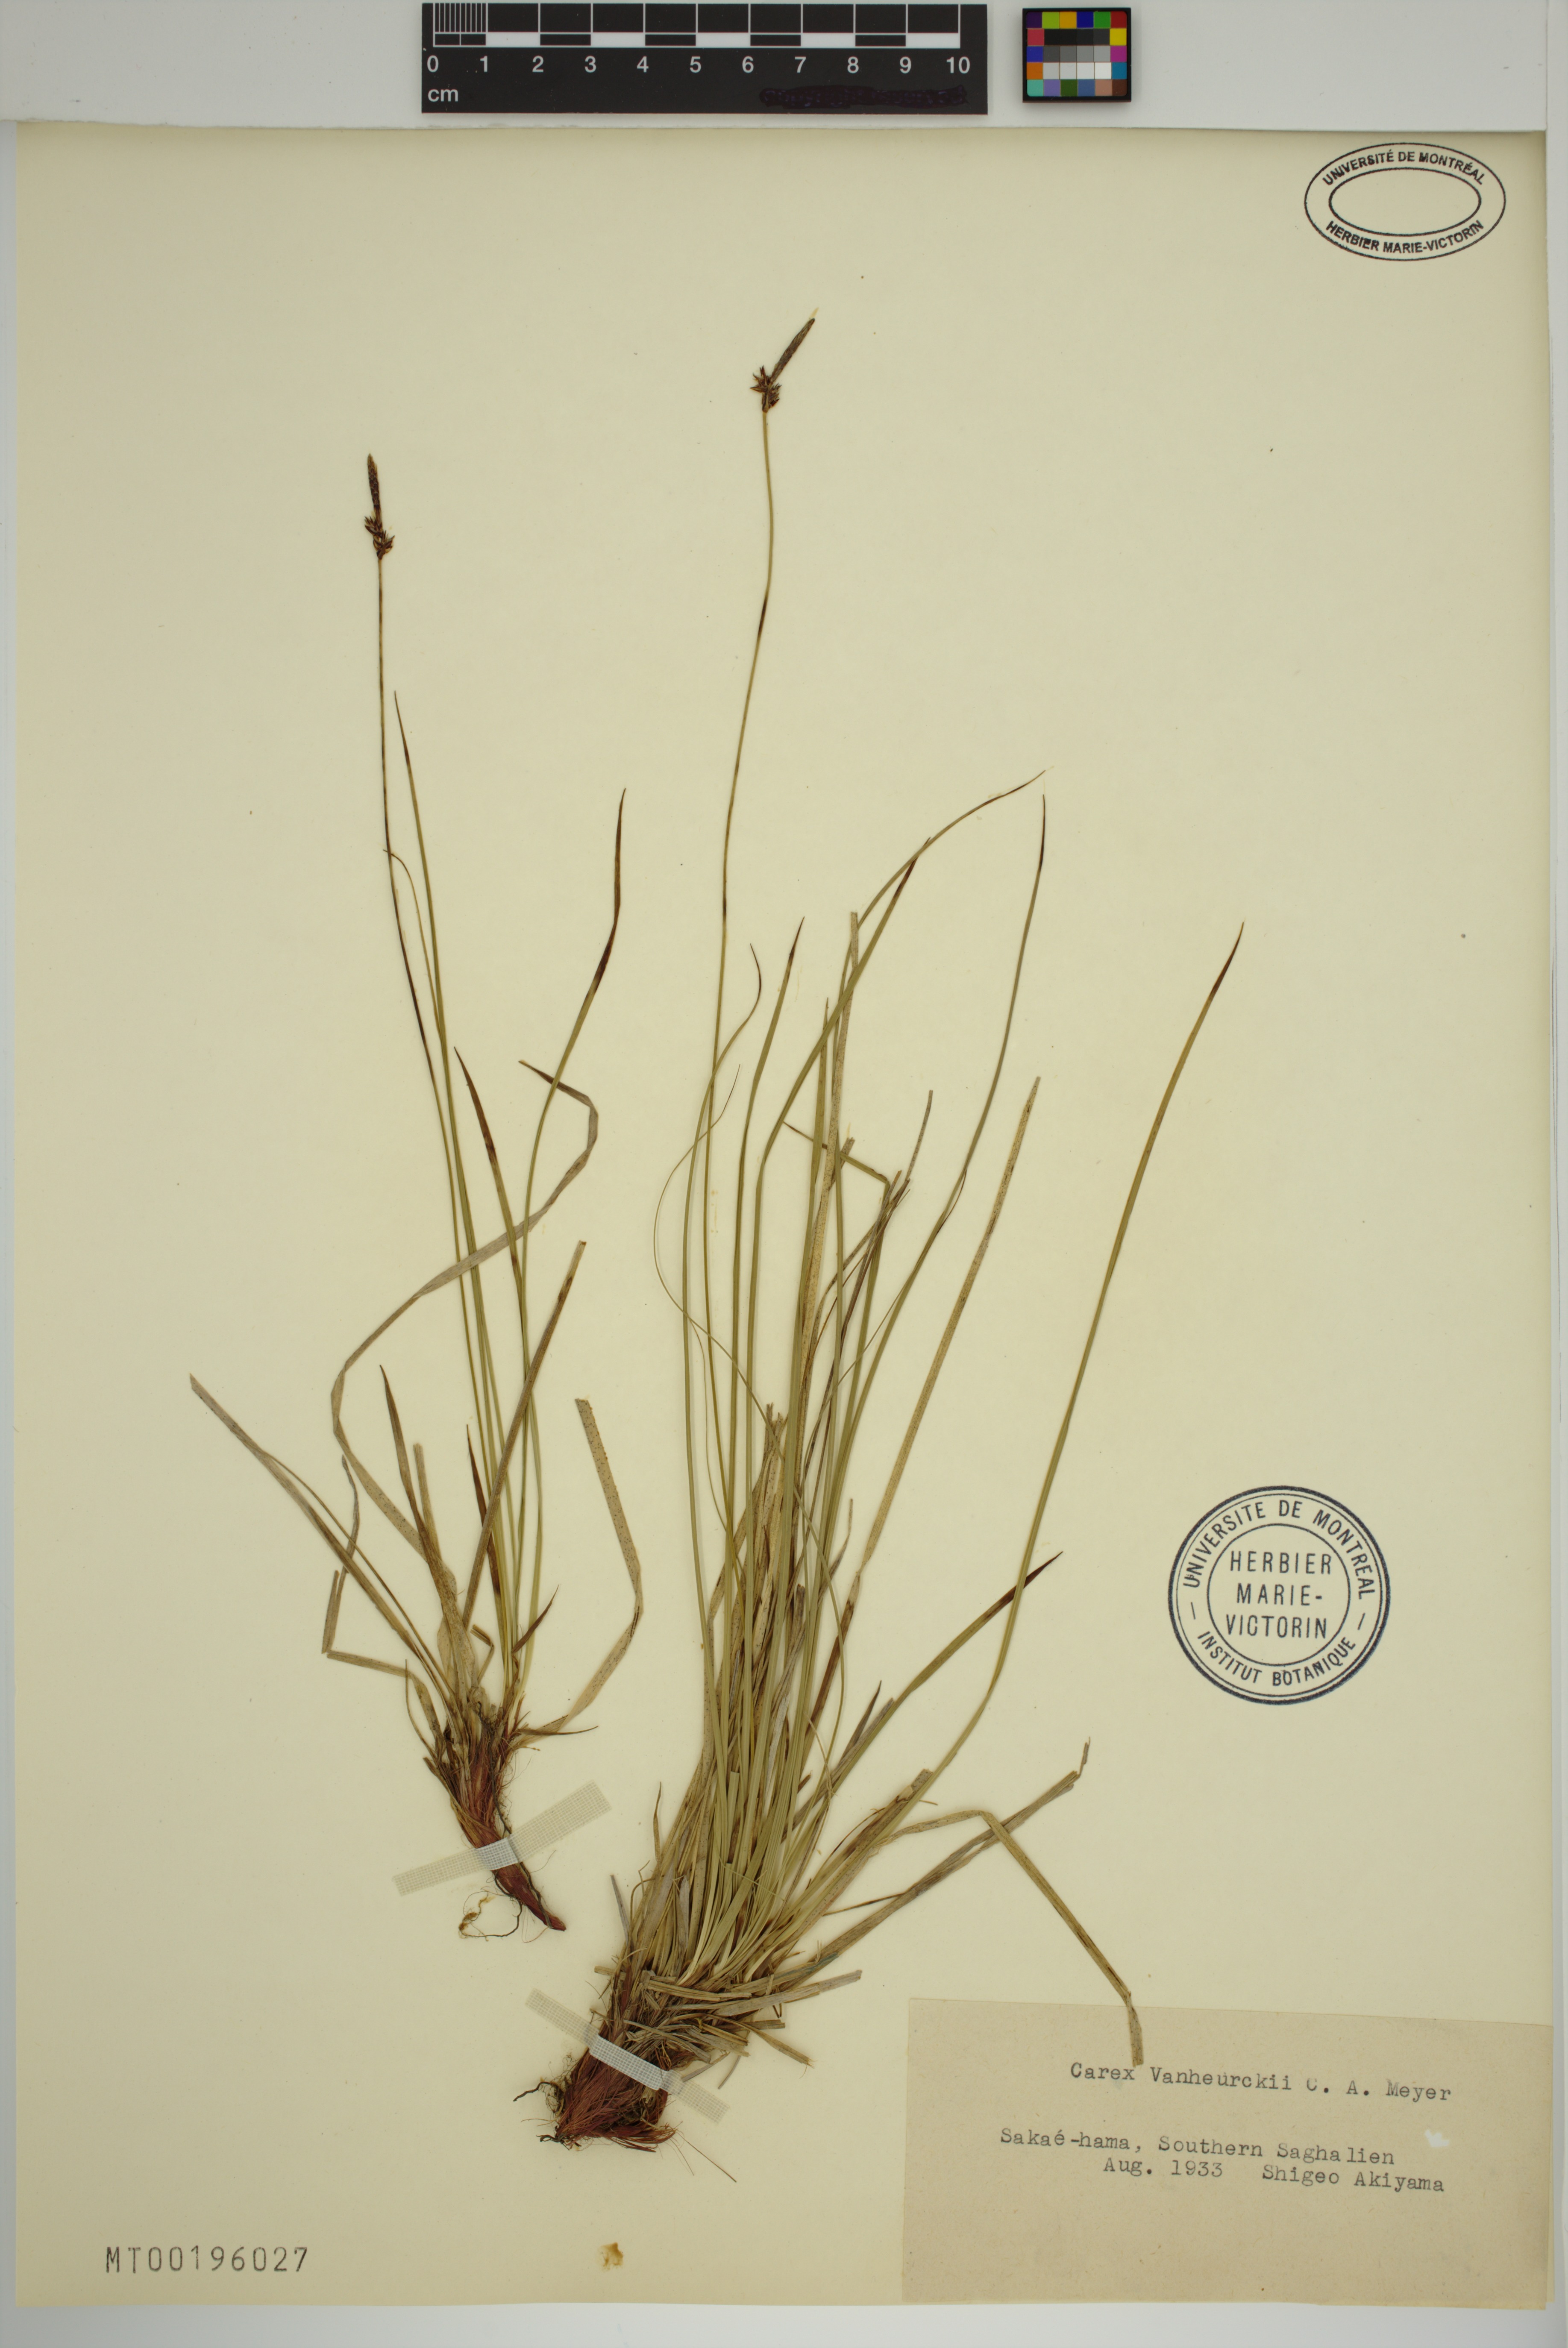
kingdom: Plantae
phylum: Tracheophyta
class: Liliopsida
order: Poales
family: Cyperaceae
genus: Carex
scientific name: Carex vanheurckii
